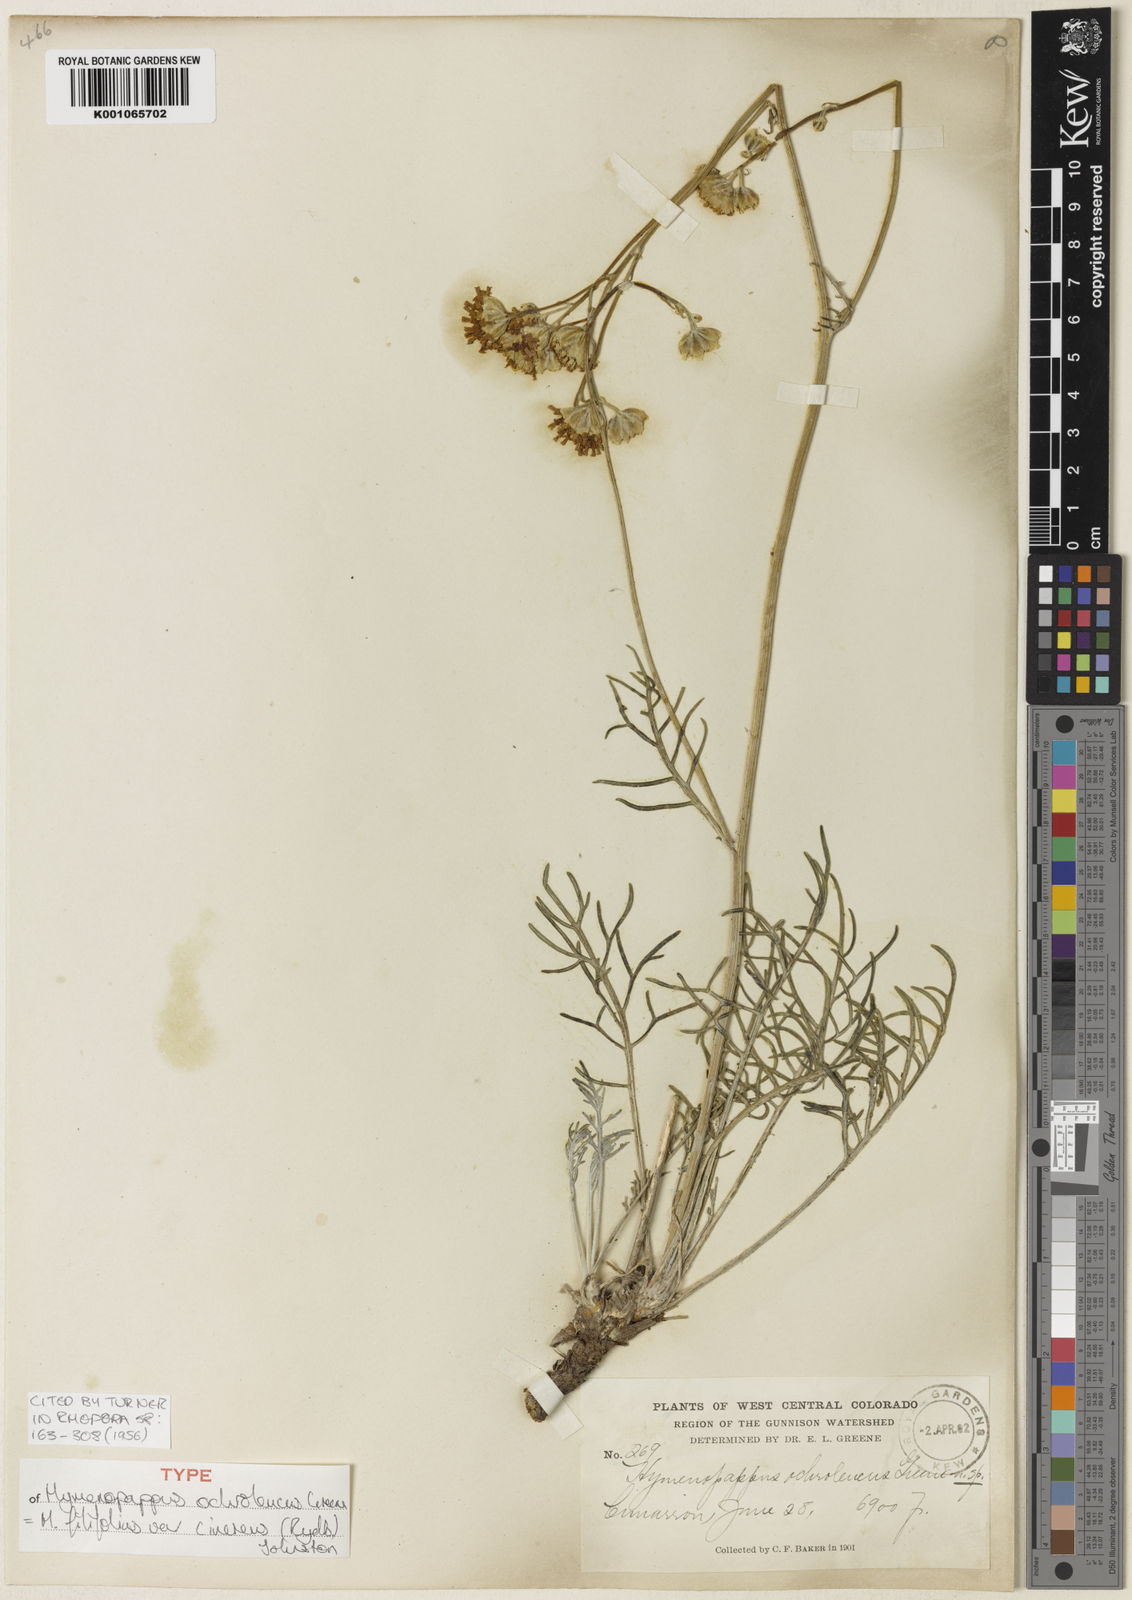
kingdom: Plantae
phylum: Tracheophyta
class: Magnoliopsida
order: Asterales
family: Asteraceae
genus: Hymenopappus
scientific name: Hymenopappus filifolius
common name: Columbia cutleaf
